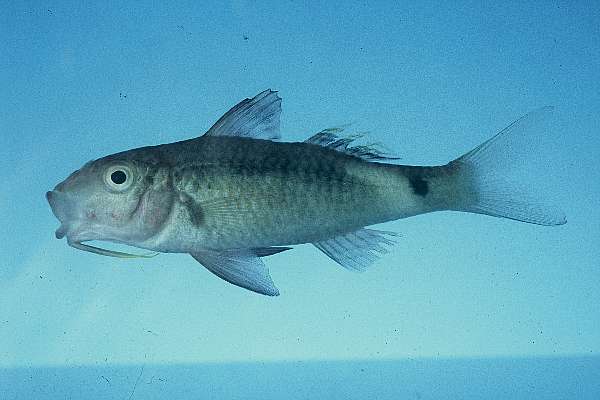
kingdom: Animalia
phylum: Chordata
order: Perciformes
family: Mullidae
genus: Parupeneus
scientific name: Parupeneus macronemus
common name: Long-barbel goatfish
